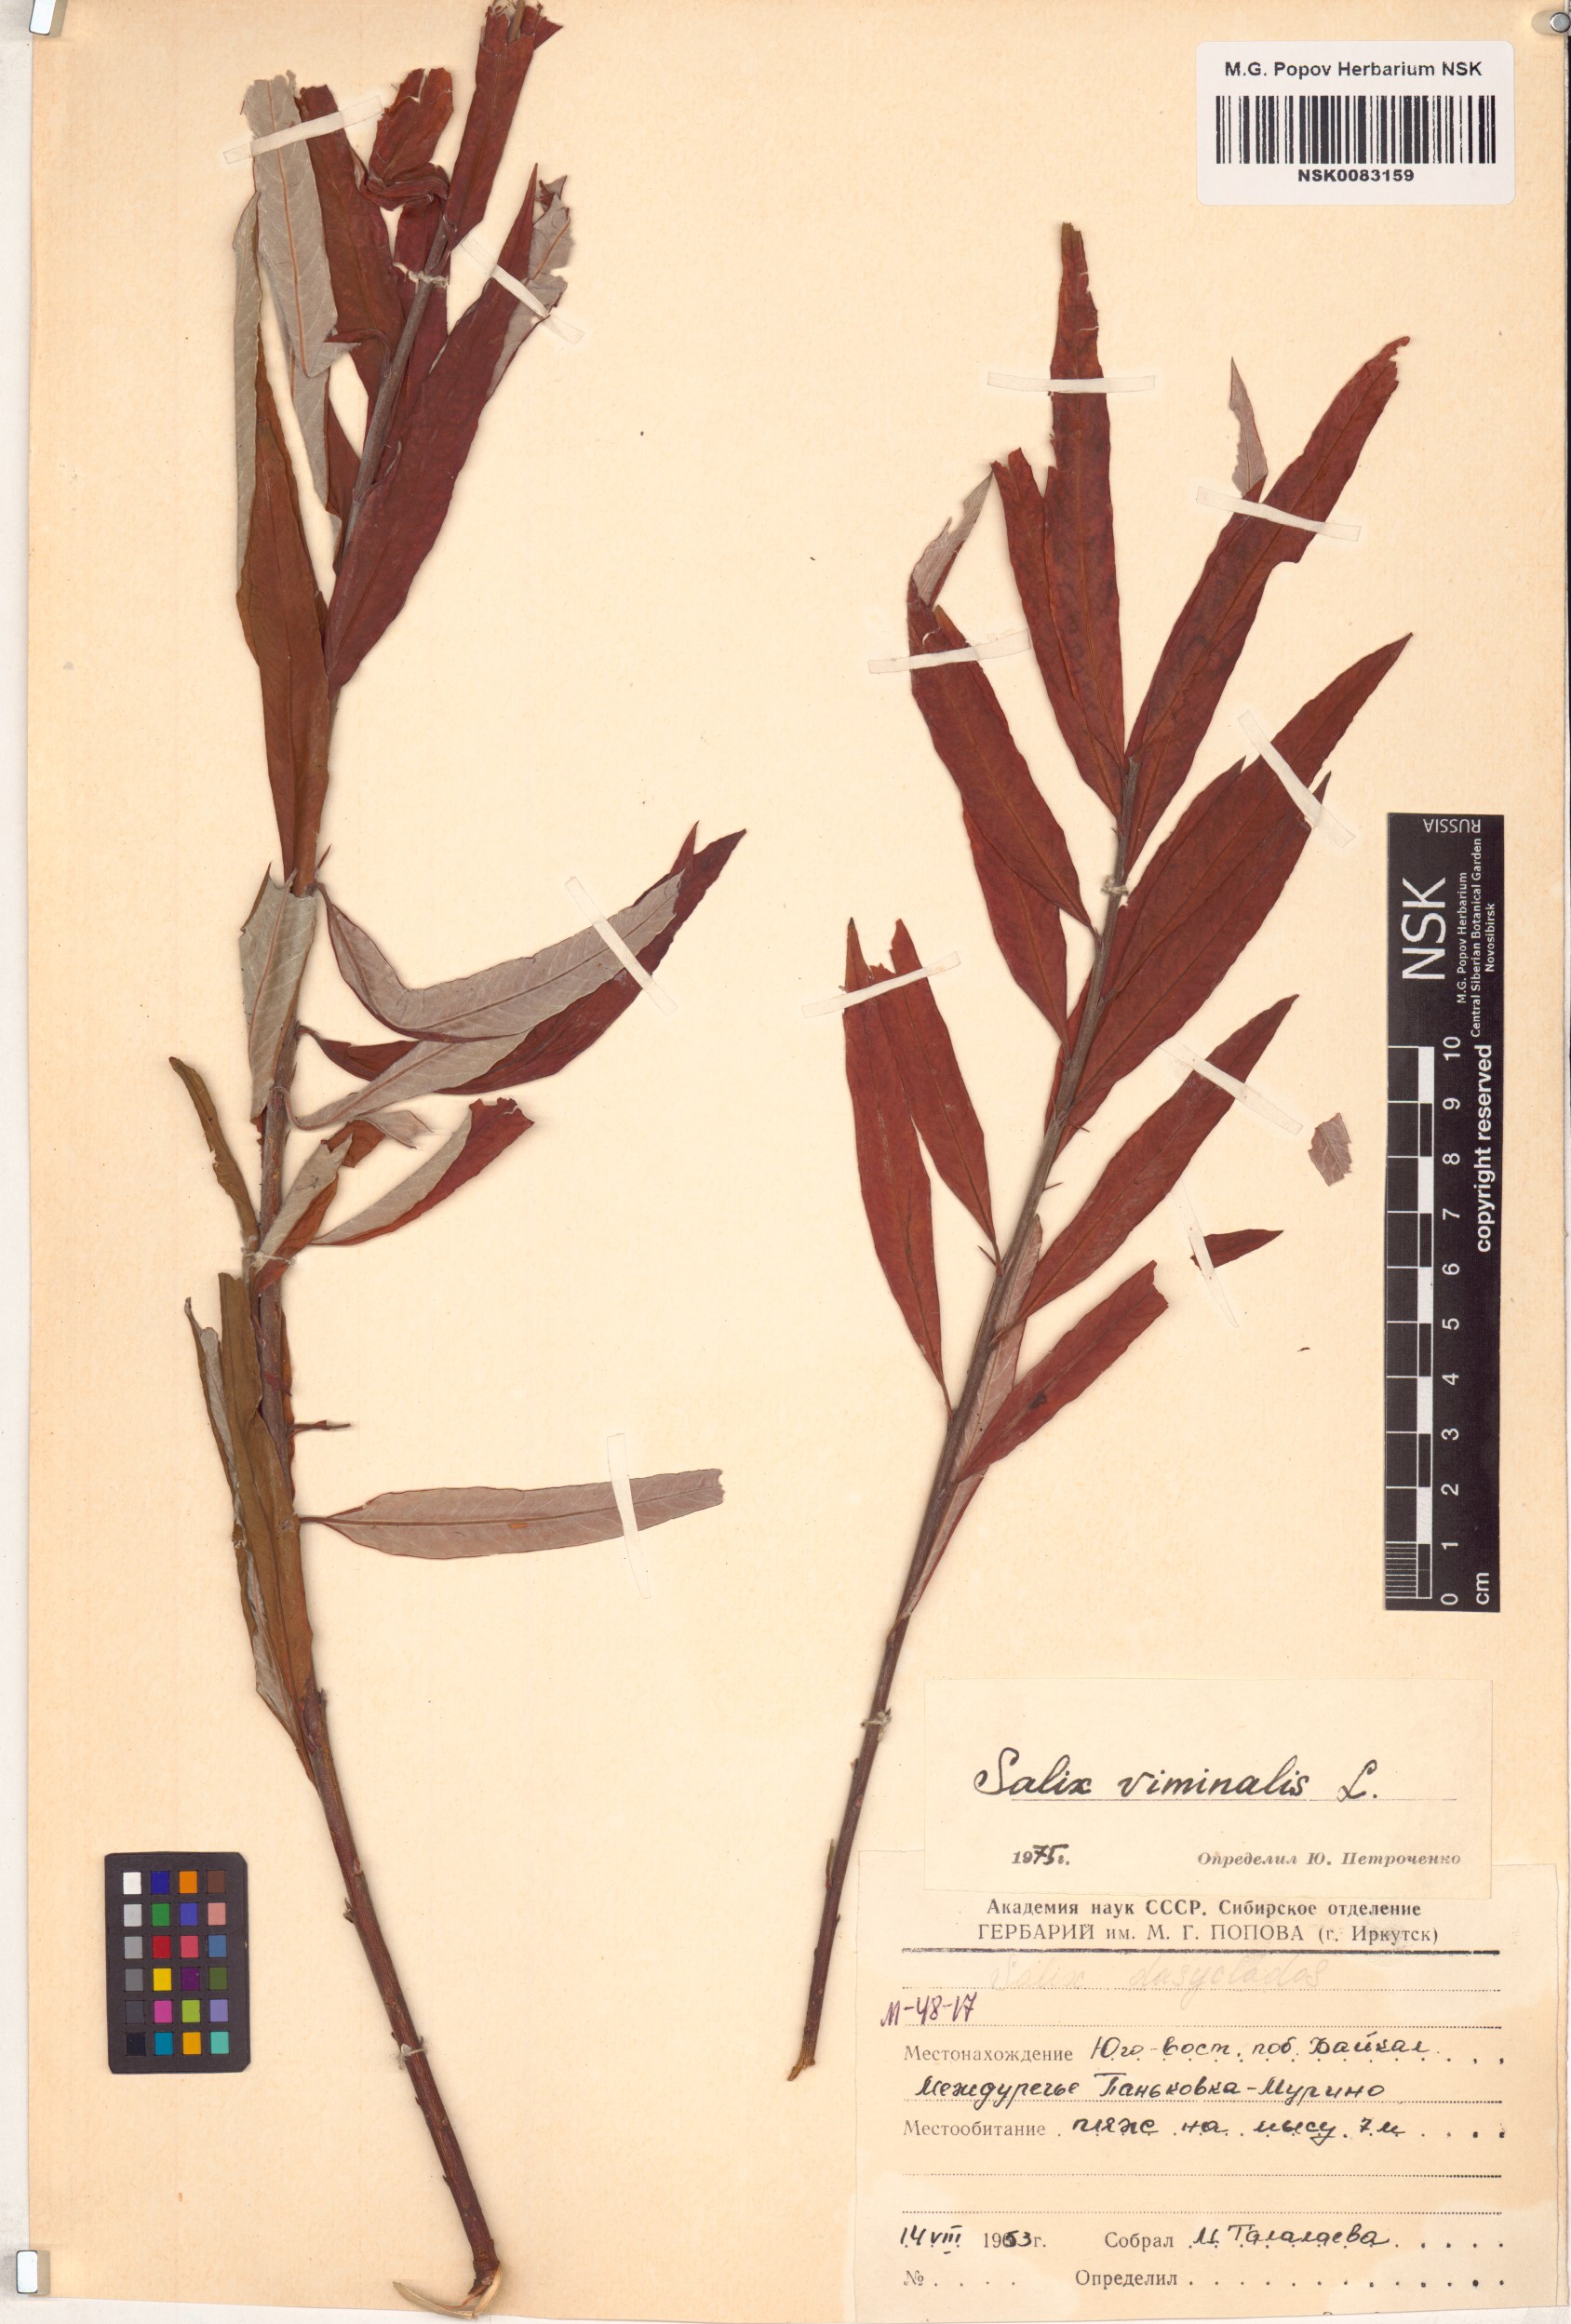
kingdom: Plantae
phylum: Tracheophyta
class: Magnoliopsida
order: Malpighiales
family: Salicaceae
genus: Salix
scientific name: Salix viminalis
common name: Osier
